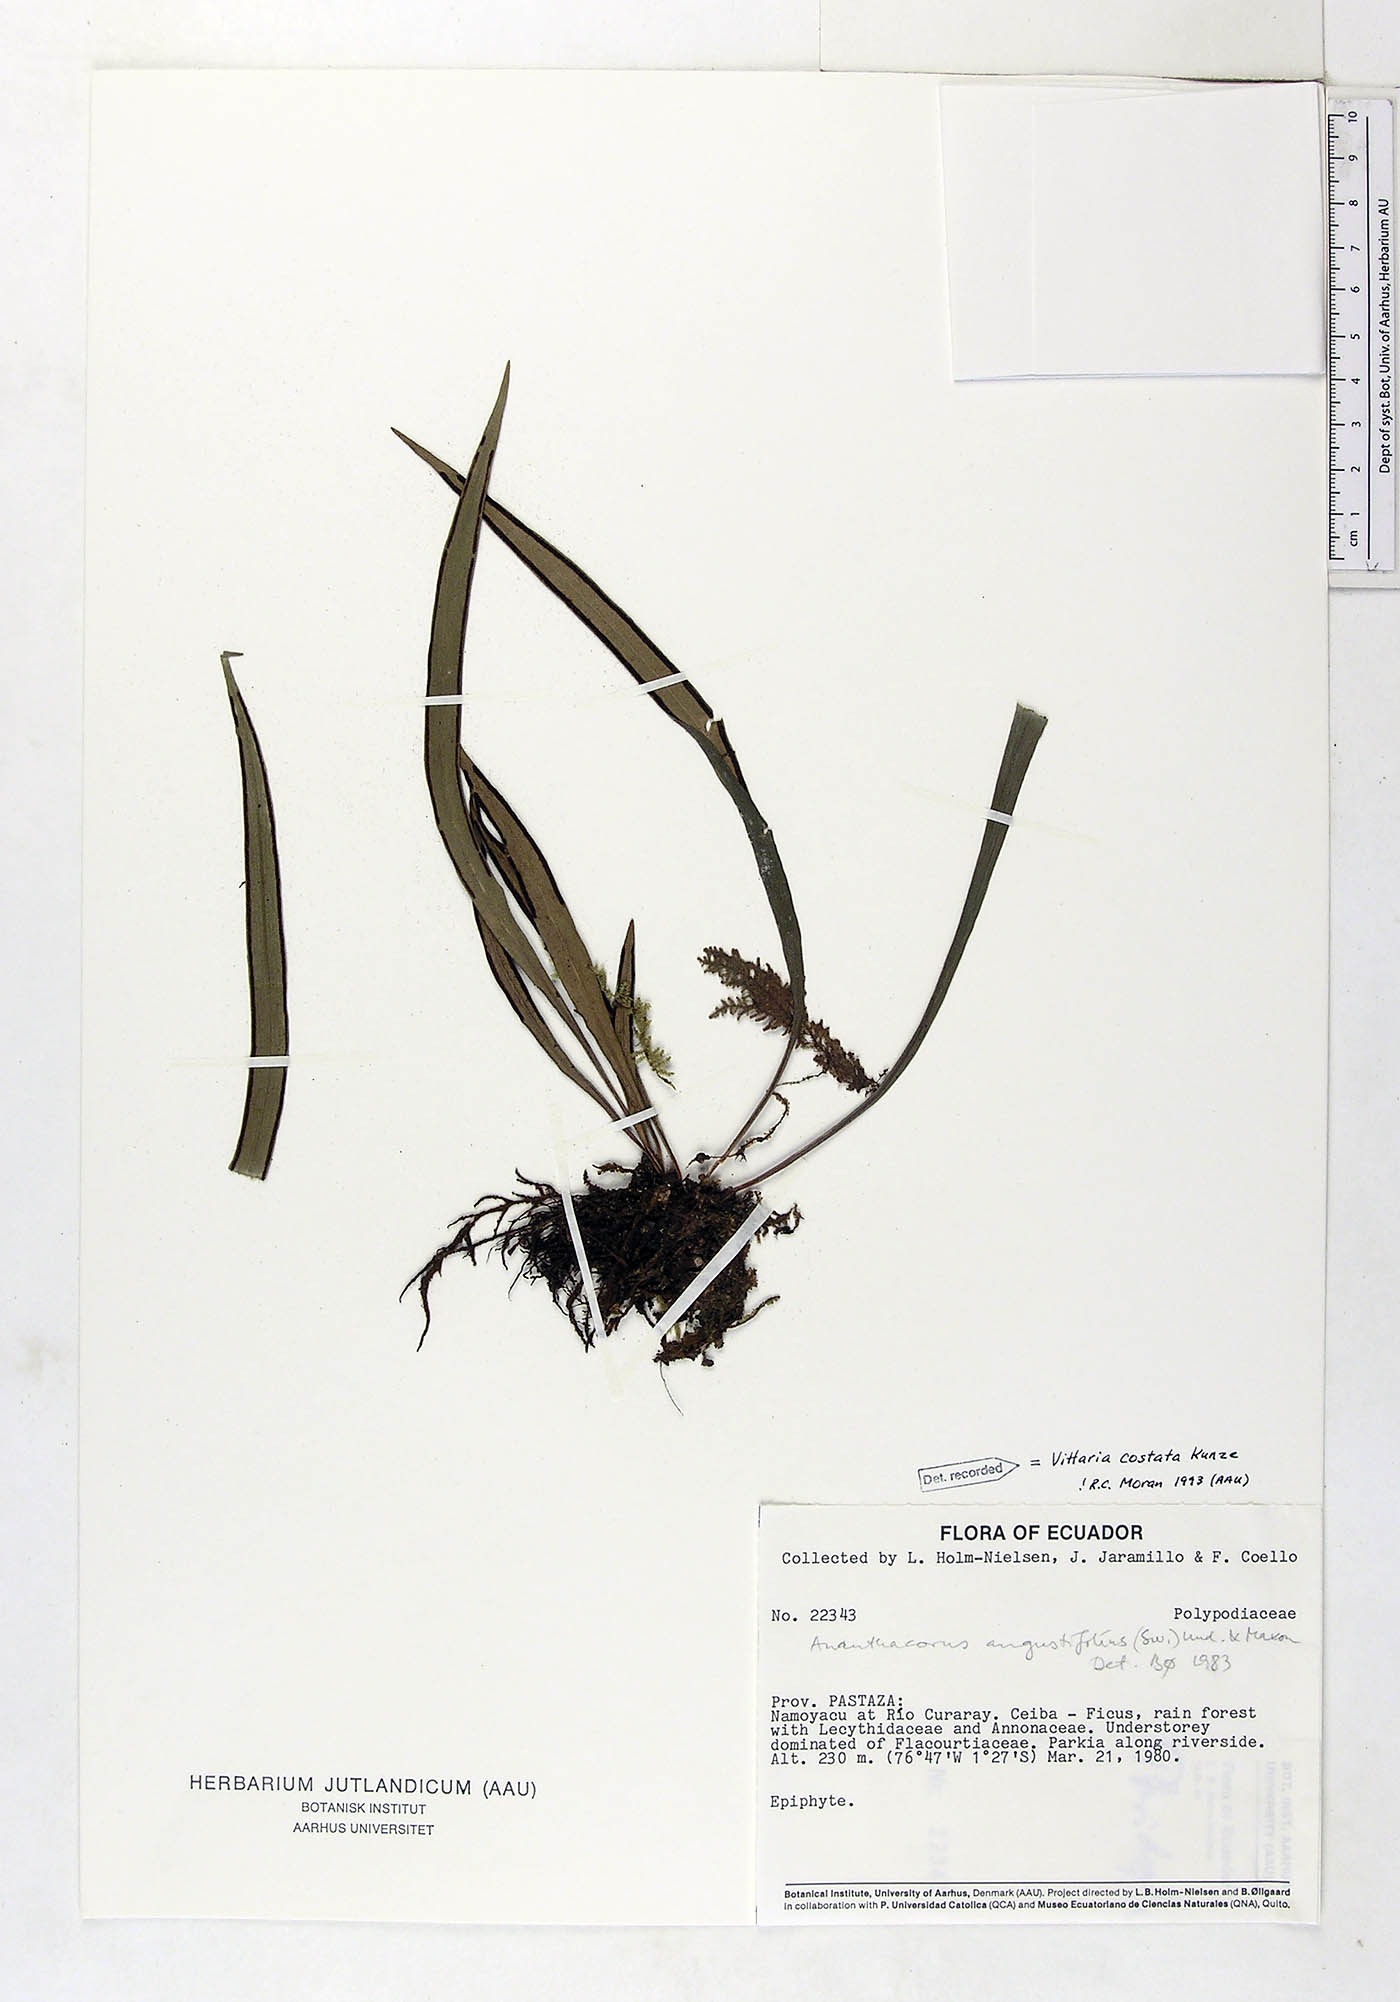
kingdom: Plantae
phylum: Tracheophyta
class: Polypodiopsida
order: Polypodiales
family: Pteridaceae
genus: Ananthacorus
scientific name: Ananthacorus angustifolius
